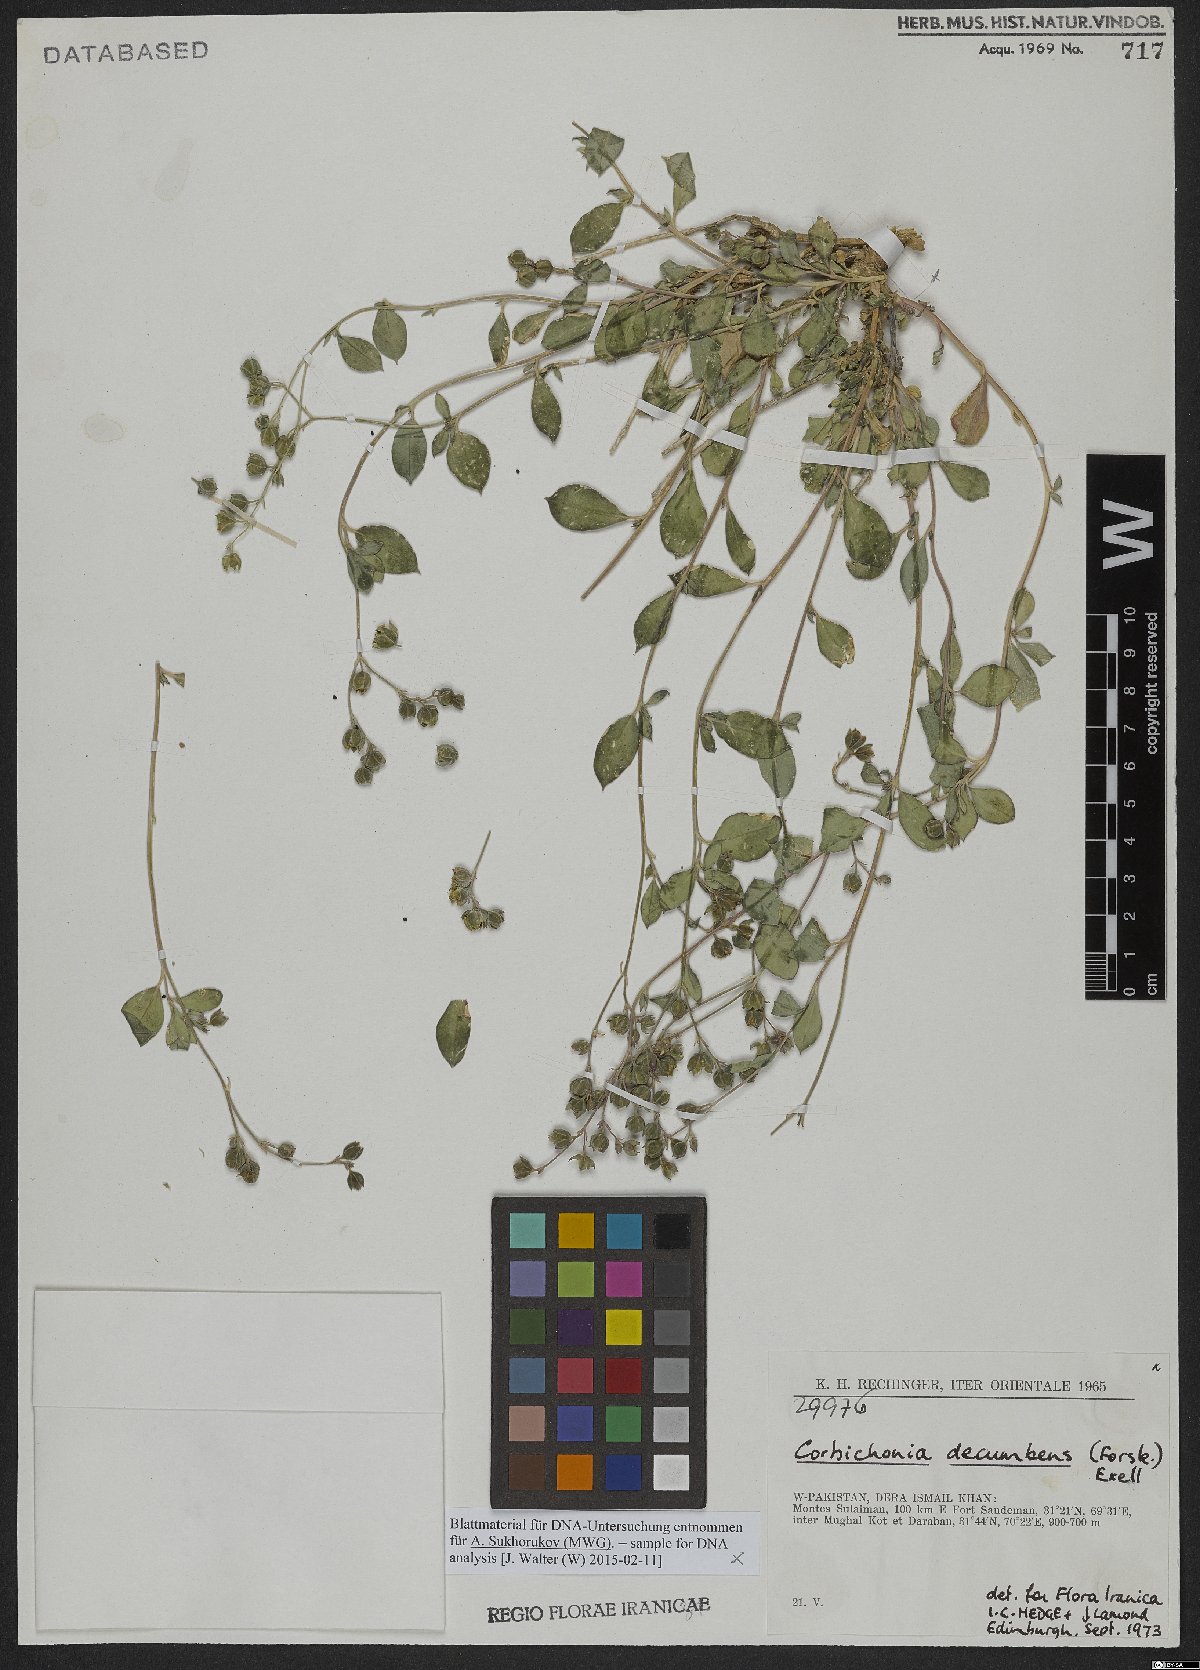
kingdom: Plantae
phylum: Tracheophyta
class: Magnoliopsida
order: Caryophyllales
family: Corbichoniaceae
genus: Corbichonia
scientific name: Corbichonia decumbens
